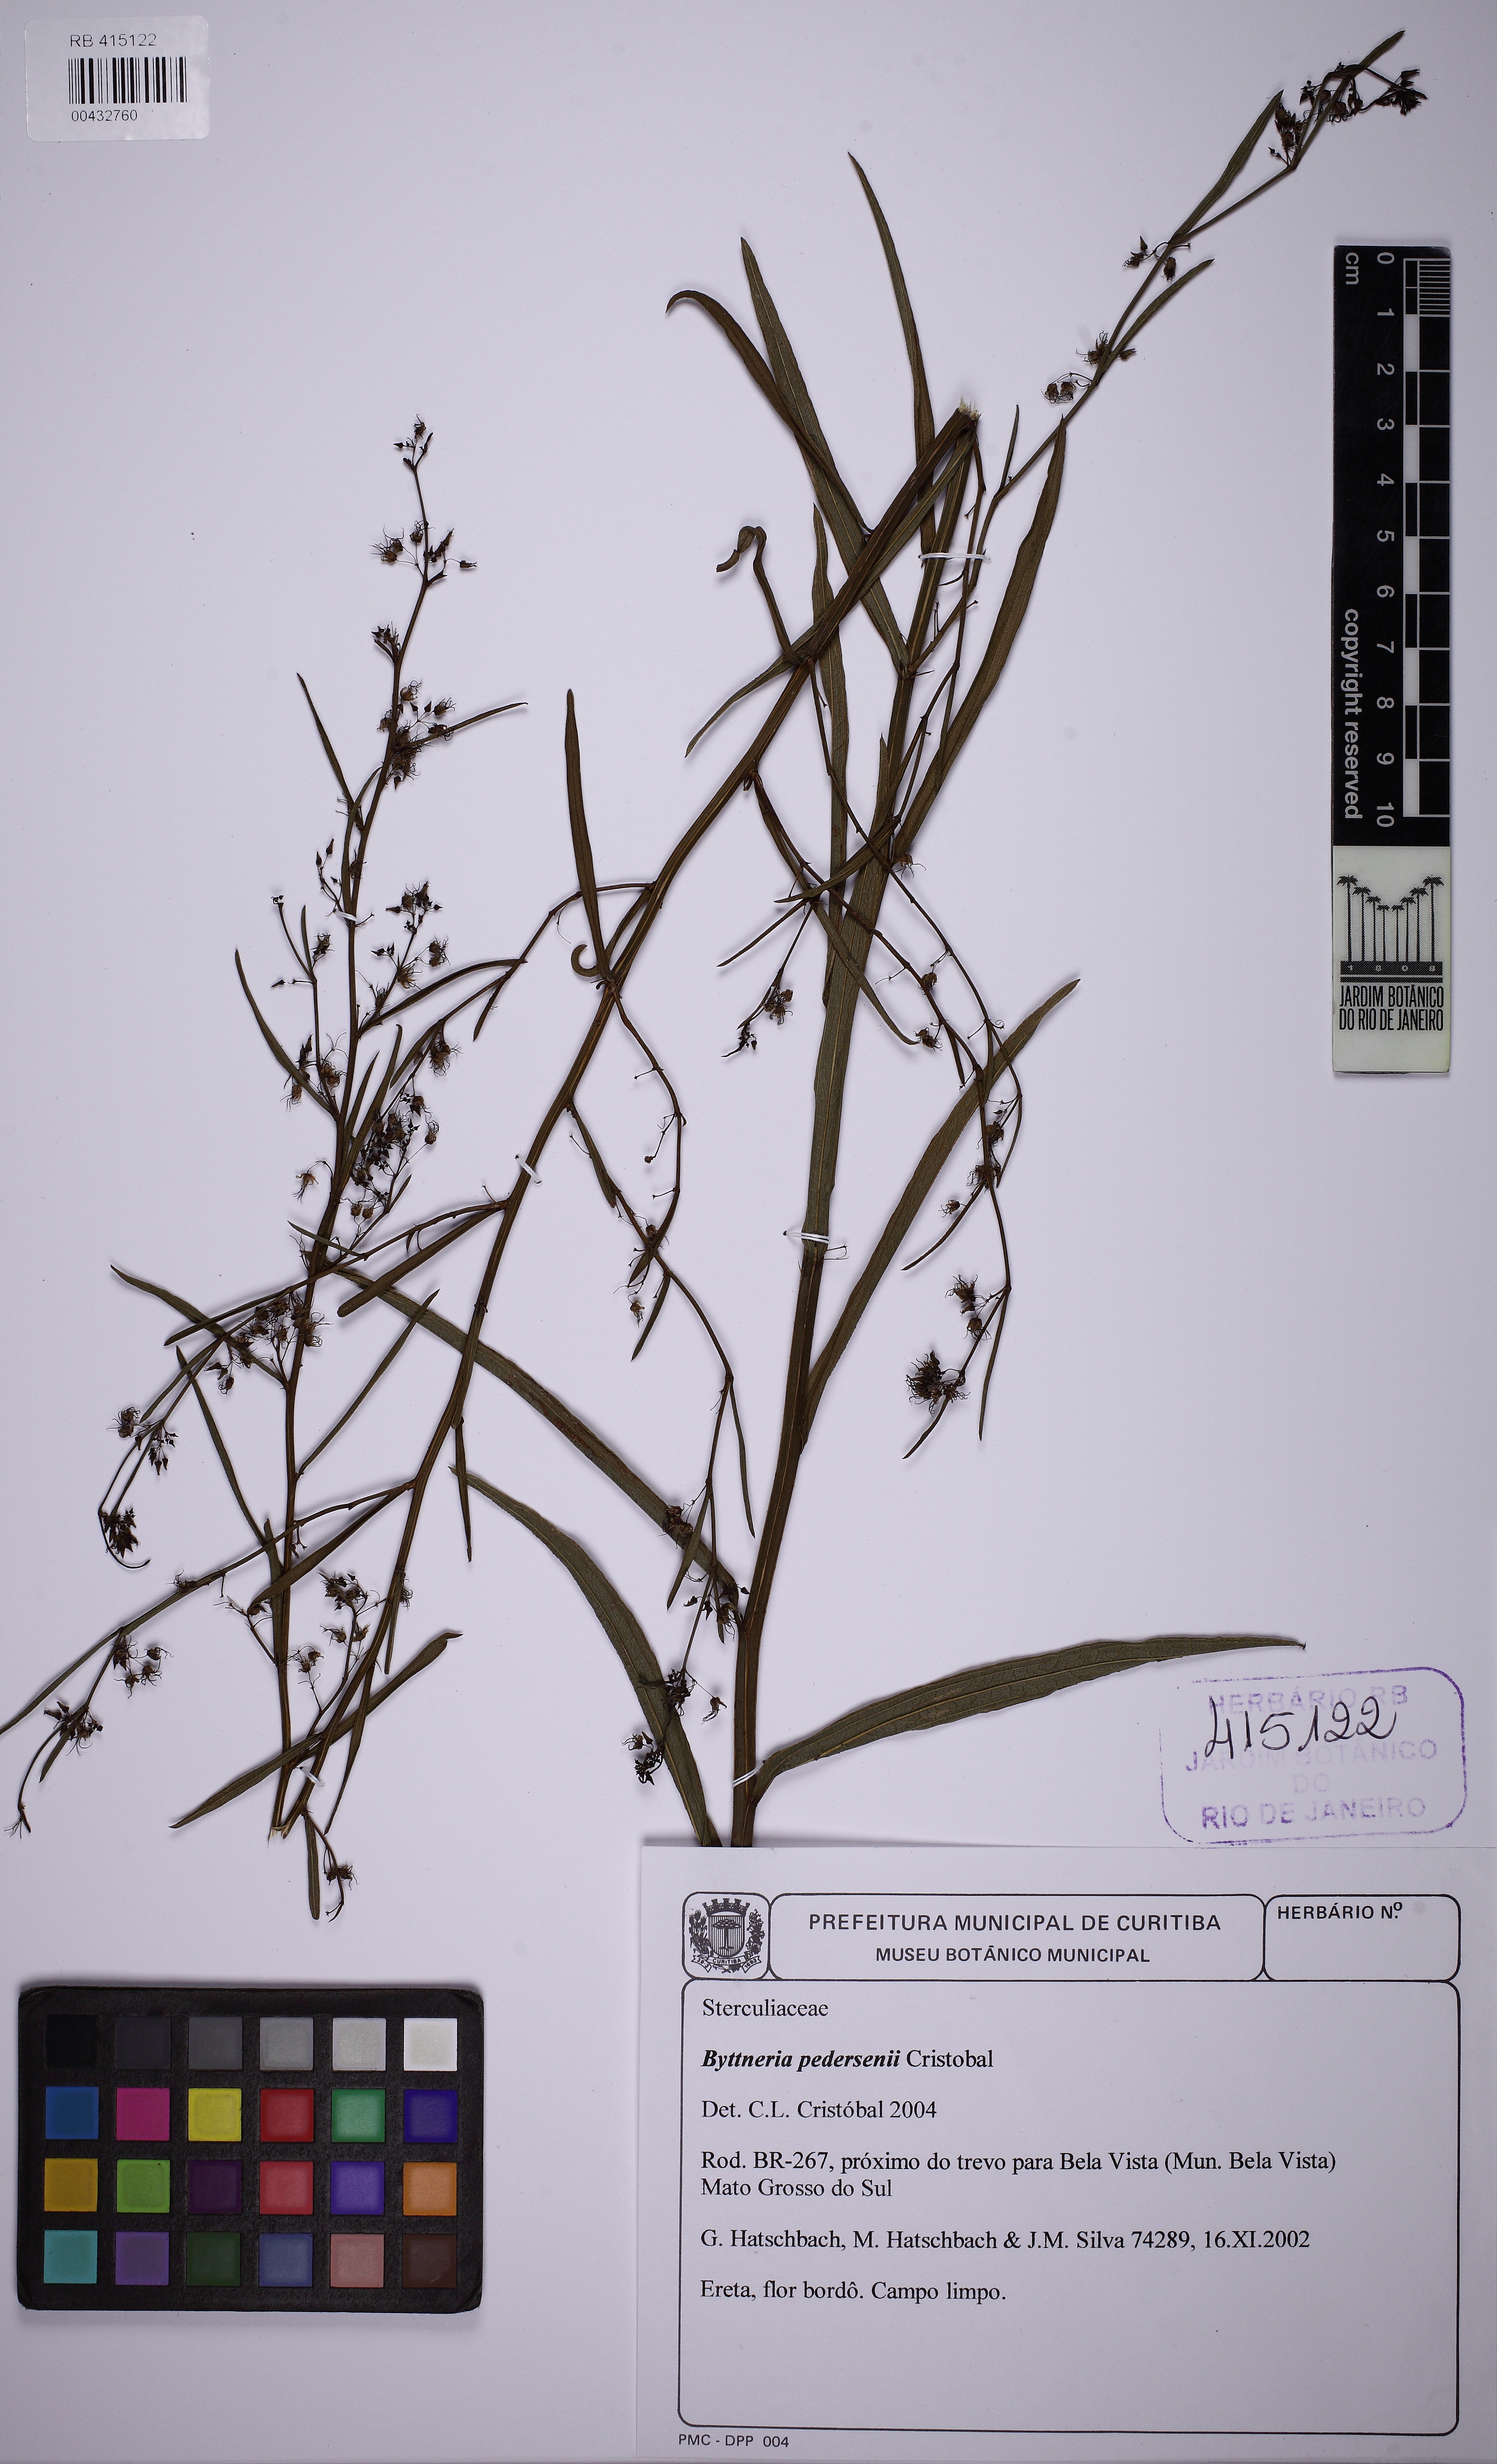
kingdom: Plantae
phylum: Tracheophyta
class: Magnoliopsida
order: Malvales
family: Malvaceae
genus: Byttneria
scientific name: Byttneria pedersenii
